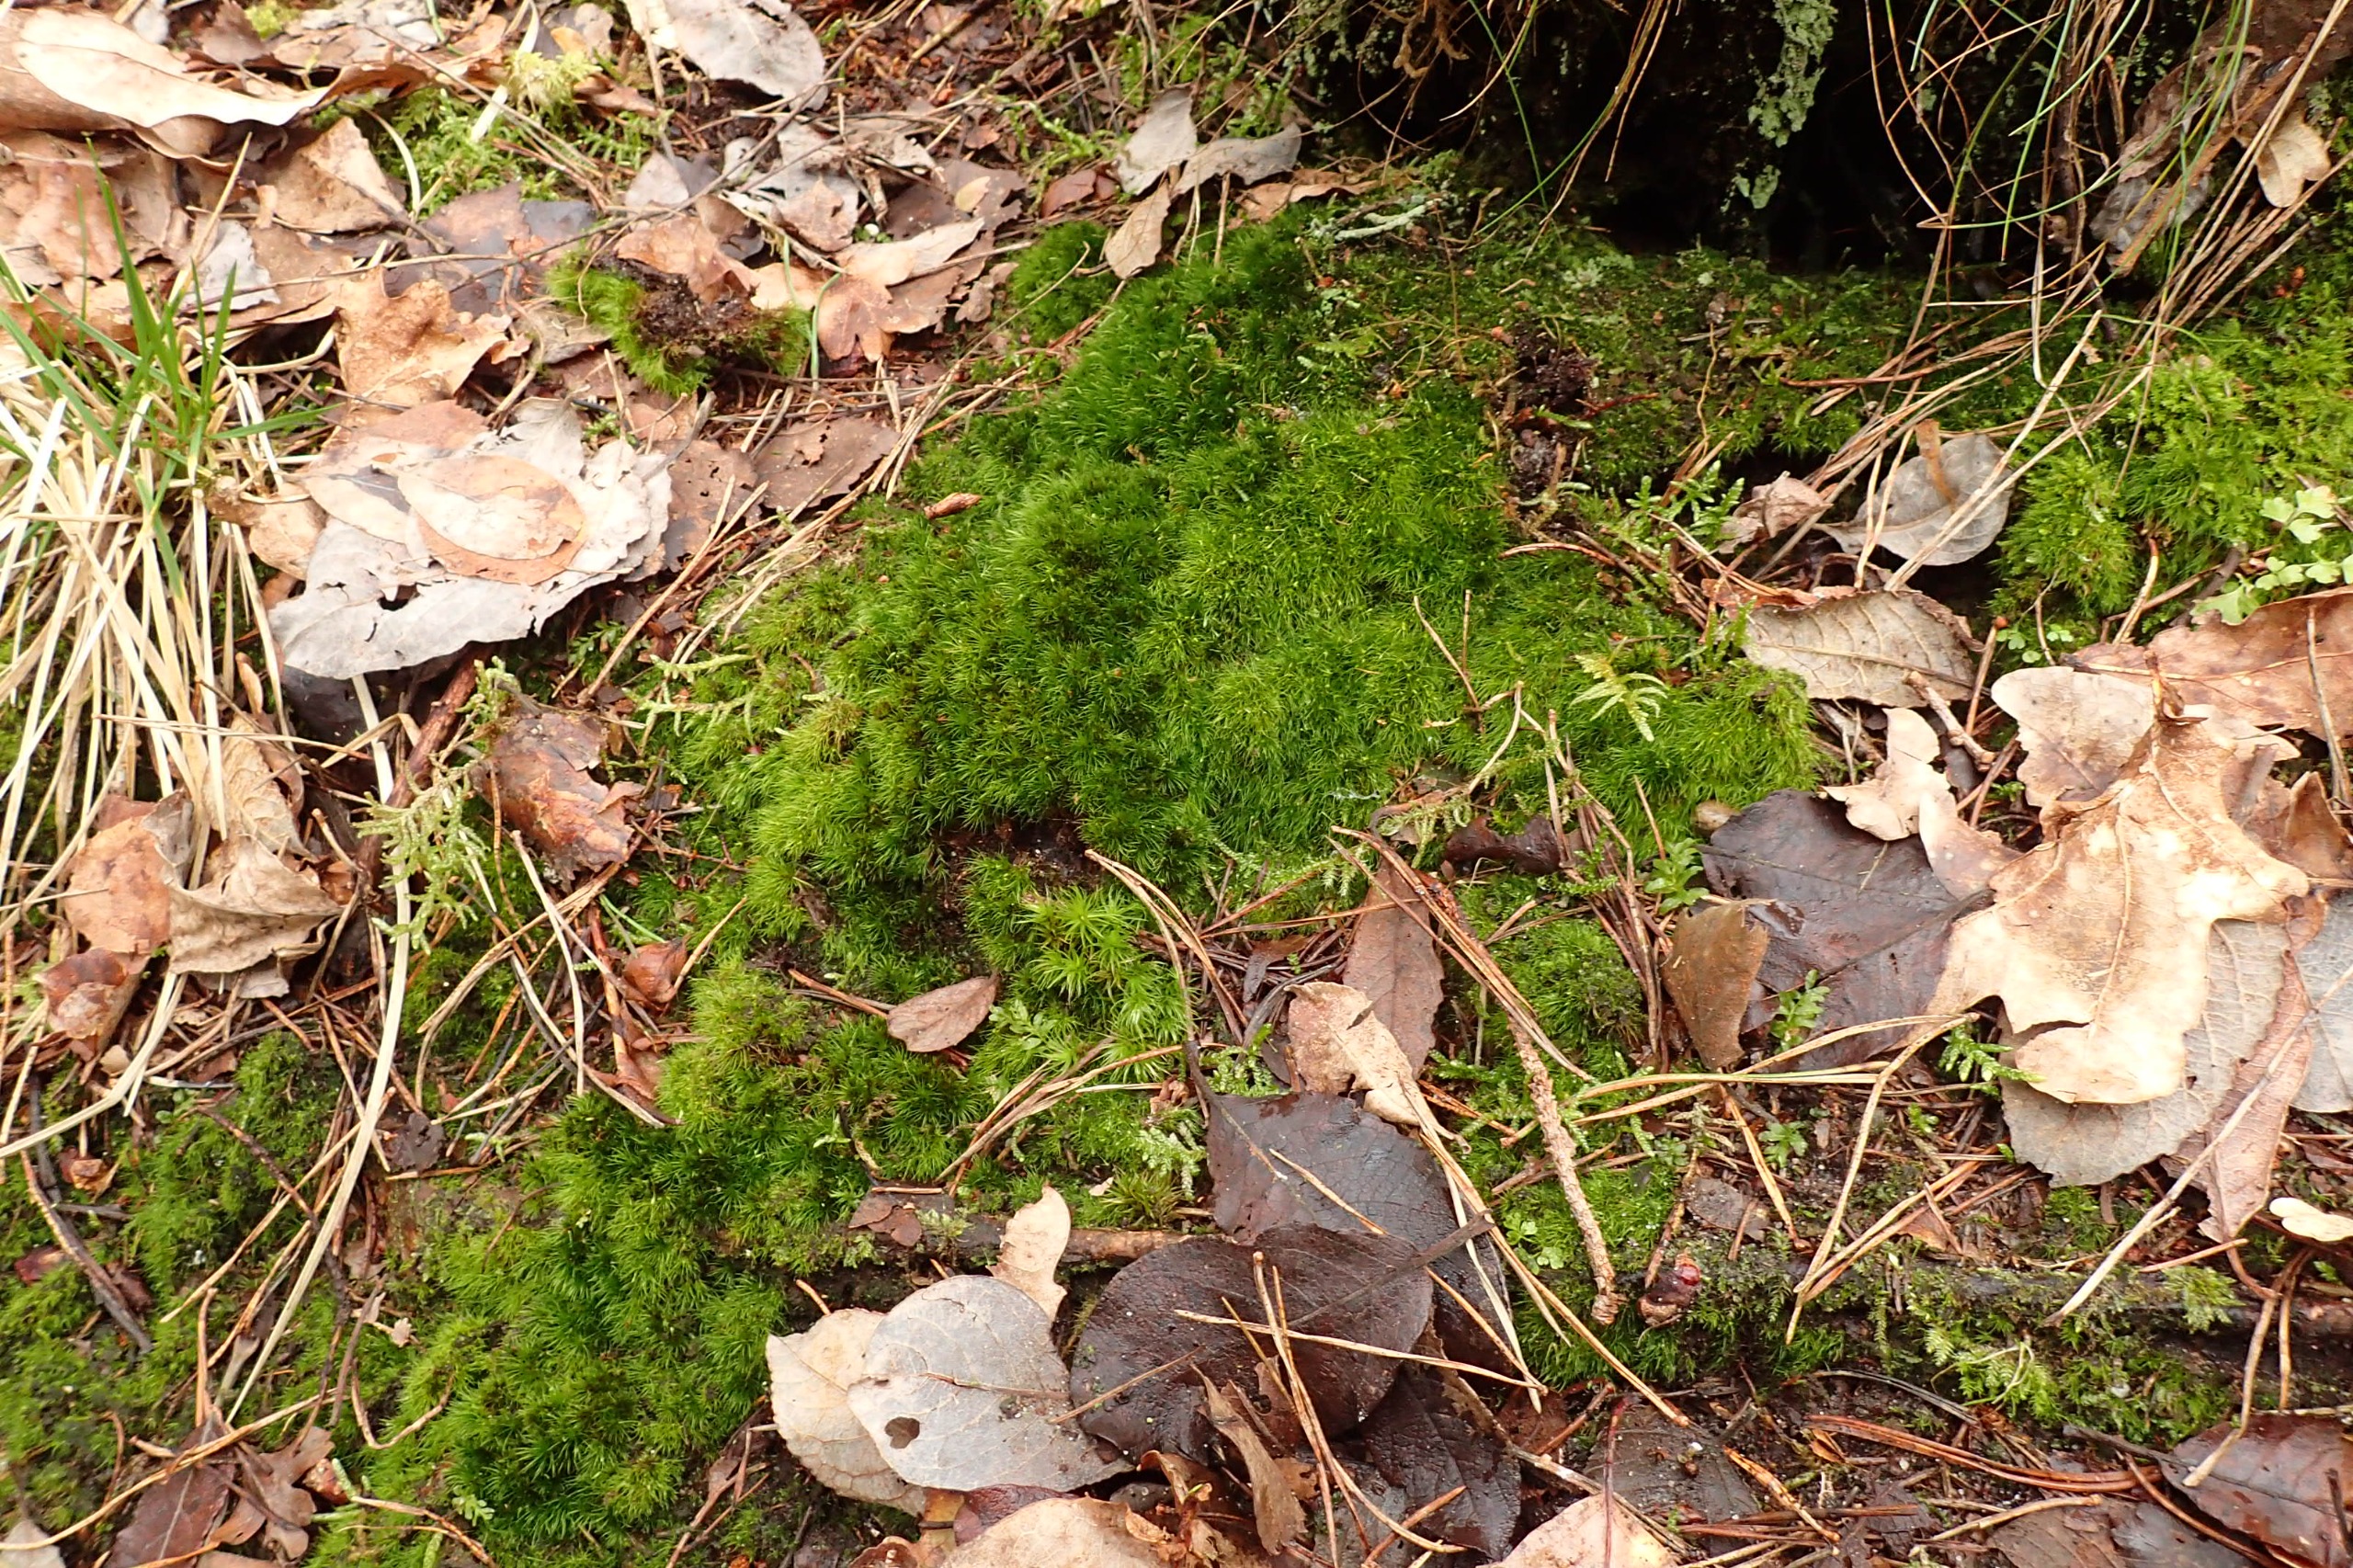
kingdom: Plantae
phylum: Bryophyta
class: Bryopsida
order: Dicranales
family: Leucobryaceae
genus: Campylopus
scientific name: Campylopus flexuosus
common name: Filtet bredribbe
